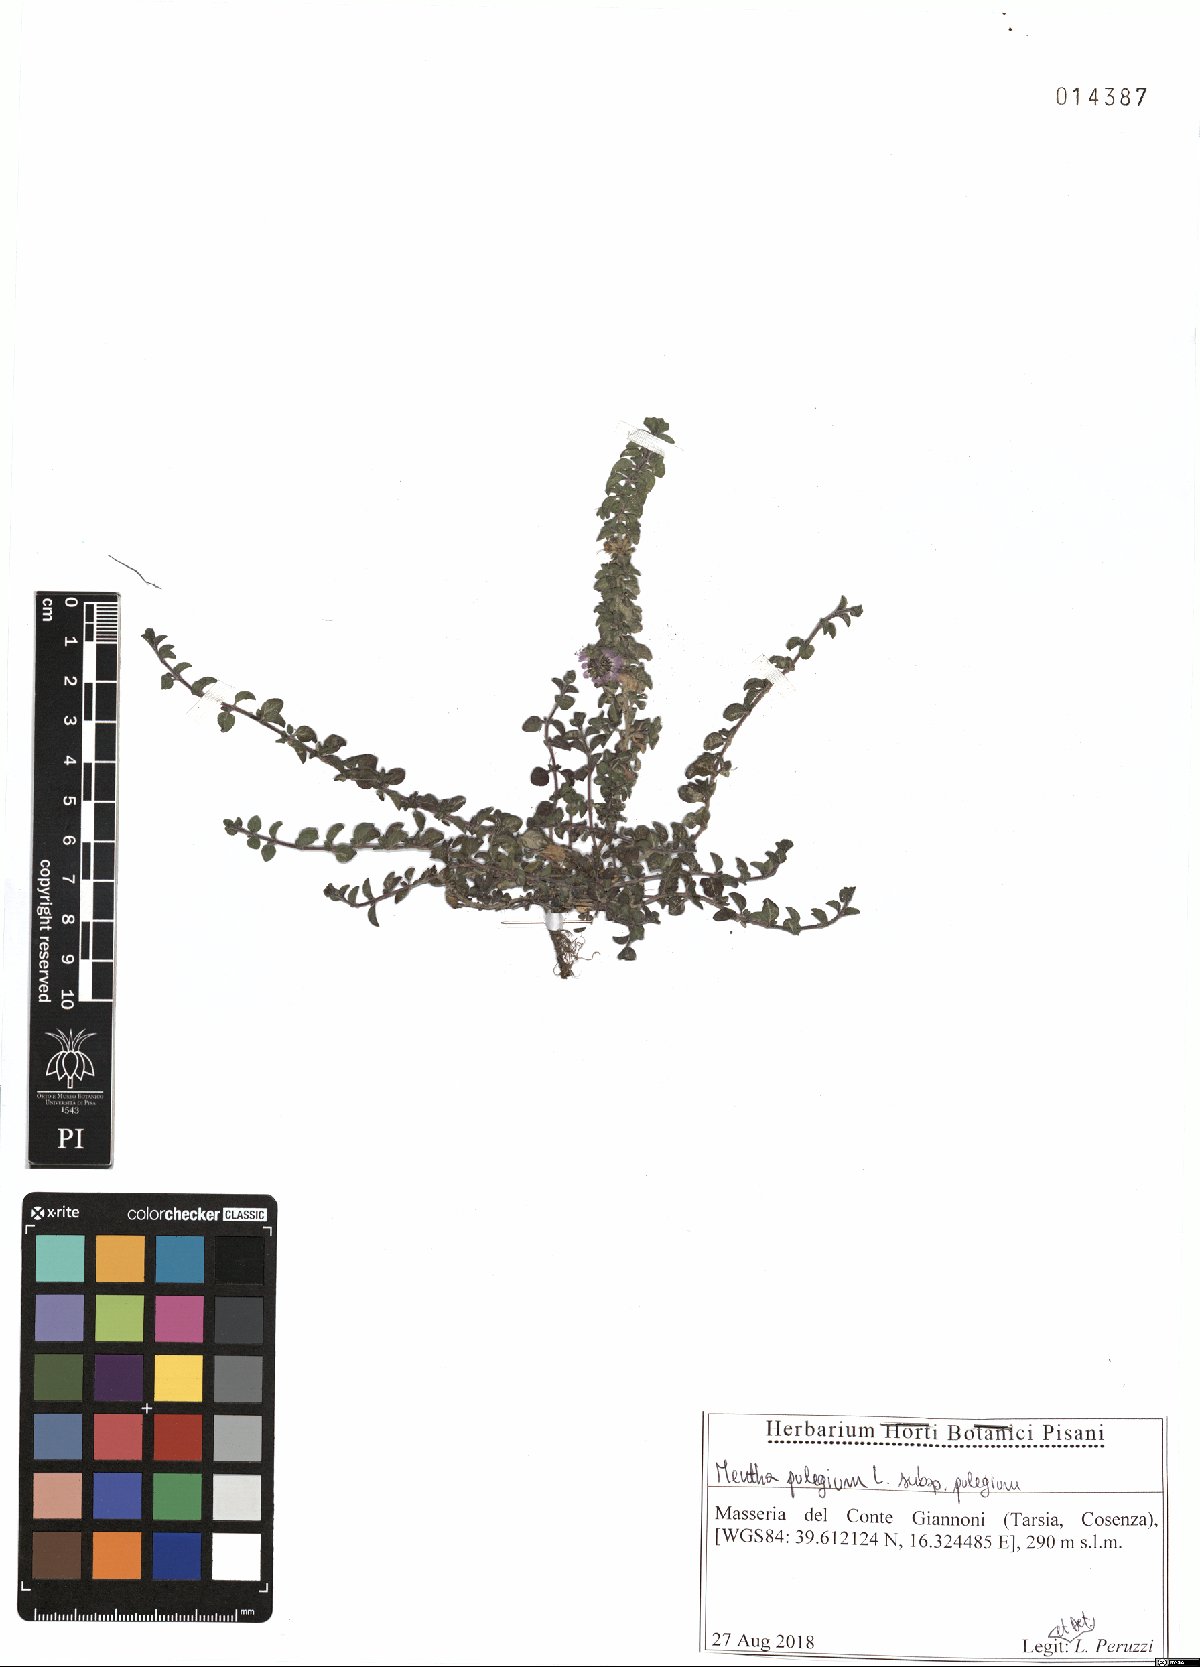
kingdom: Plantae
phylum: Tracheophyta
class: Magnoliopsida
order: Lamiales
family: Lamiaceae
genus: Mentha
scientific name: Mentha pulegium
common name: Pennyroyal
